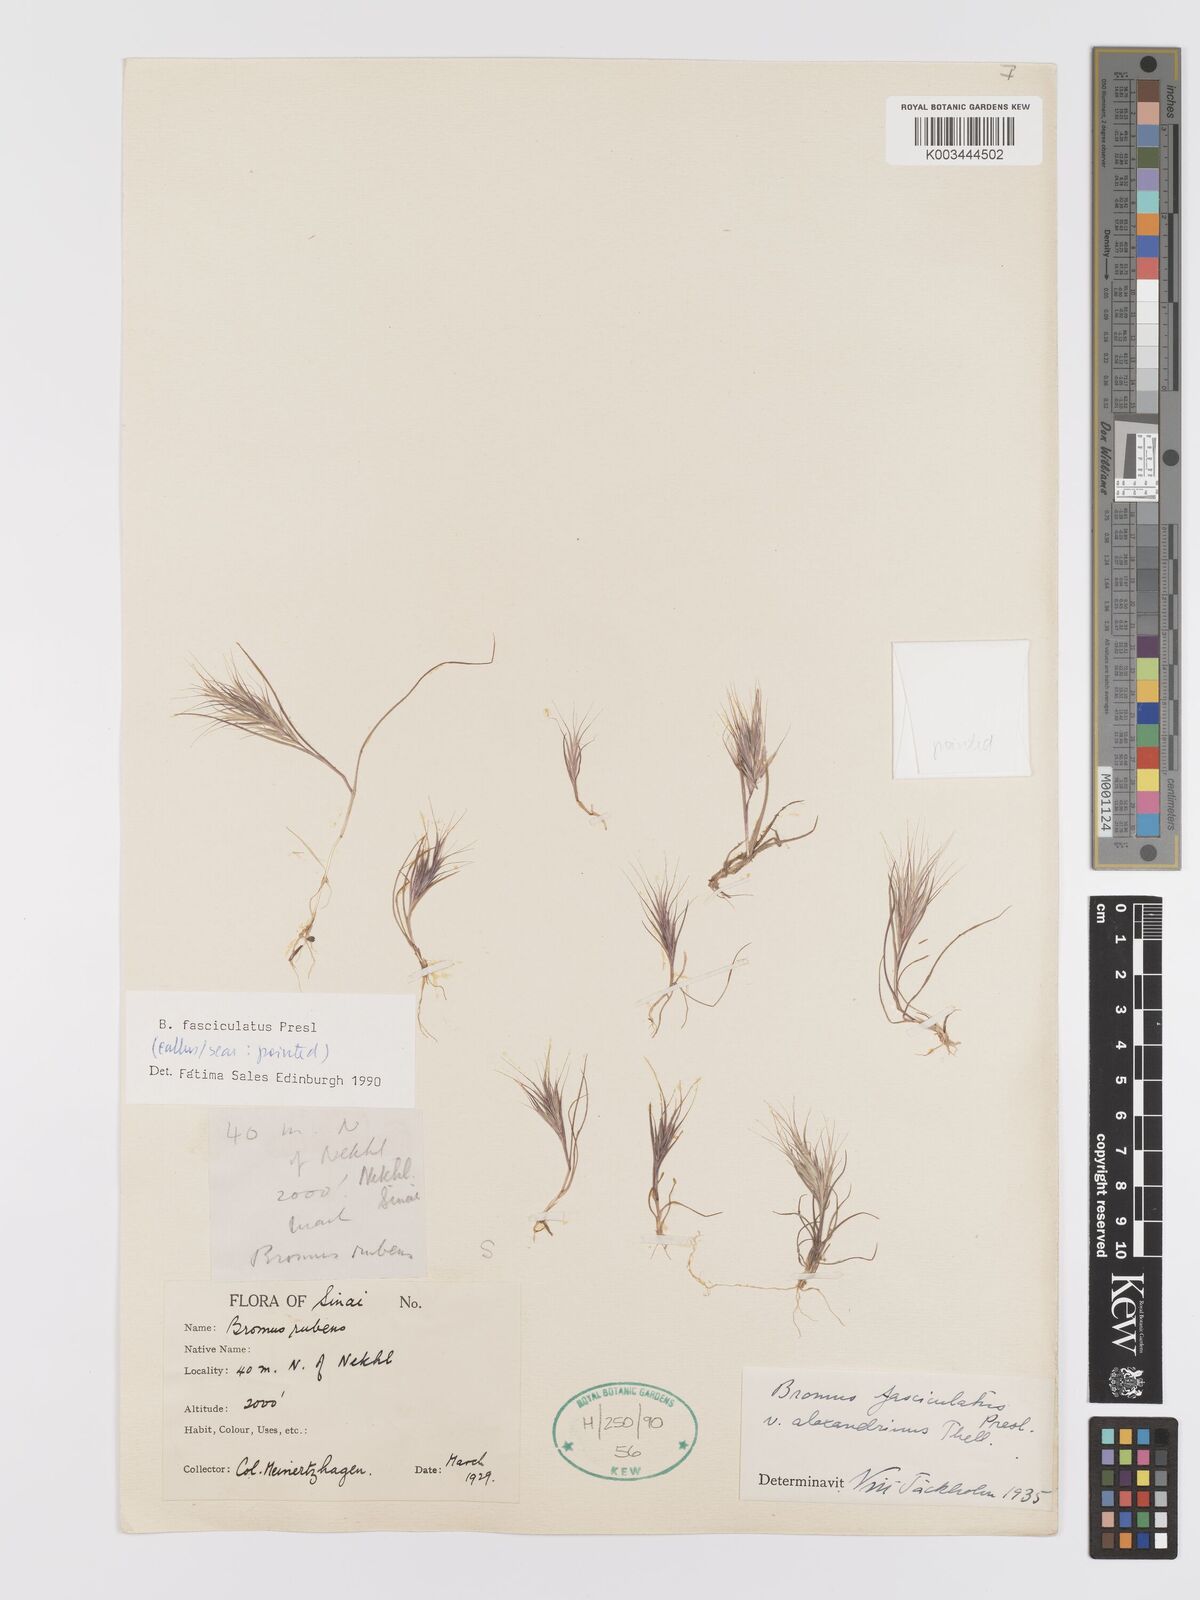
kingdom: Plantae
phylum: Tracheophyta
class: Liliopsida
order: Poales
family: Poaceae
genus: Bromus
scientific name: Bromus fasciculatus
